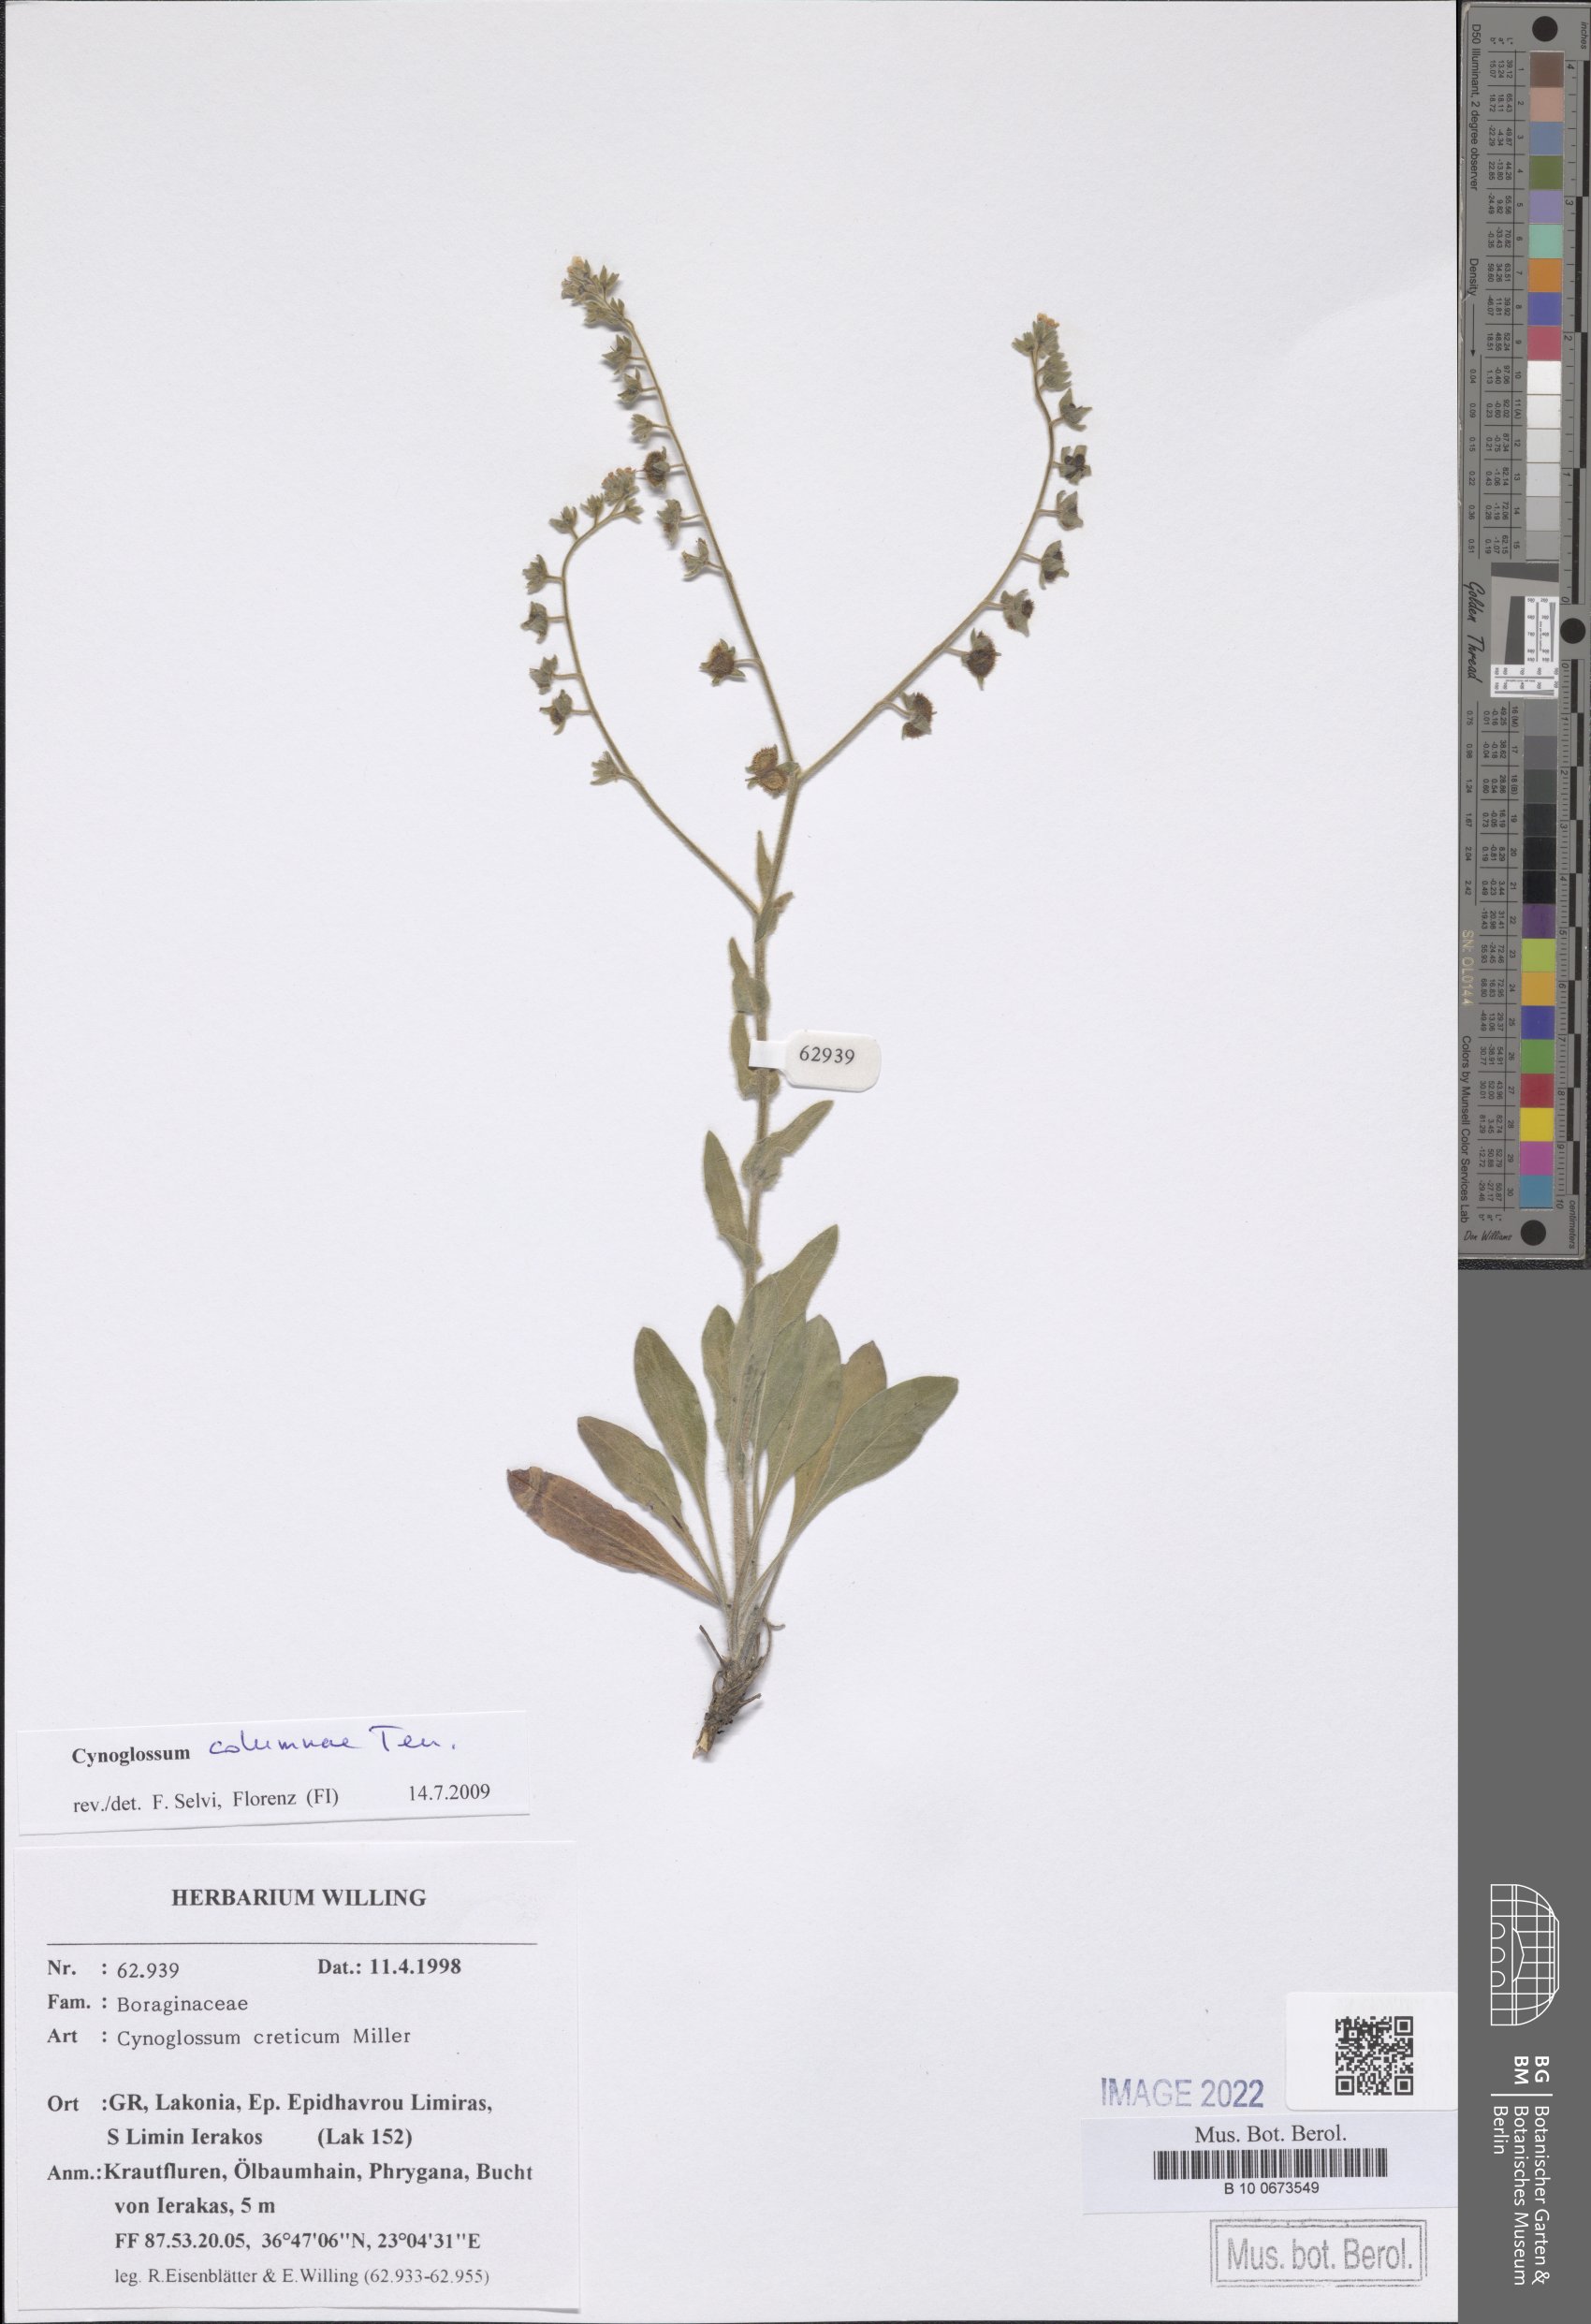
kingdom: Plantae
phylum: Tracheophyta
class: Magnoliopsida
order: Boraginales
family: Boraginaceae
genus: Rindera
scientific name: Rindera columnae
